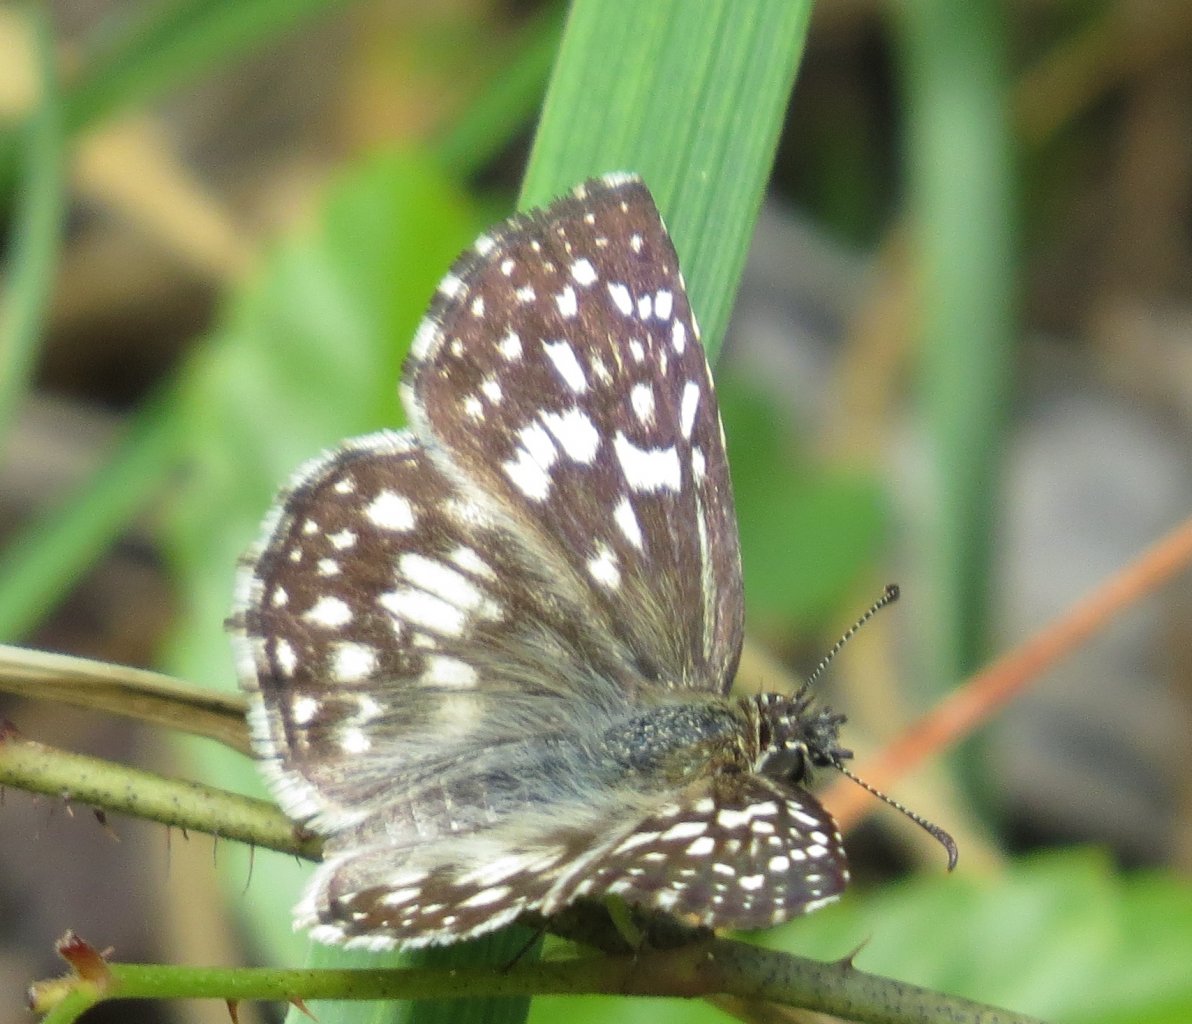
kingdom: Animalia
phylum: Arthropoda
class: Insecta
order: Lepidoptera
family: Hesperiidae
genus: Pyrgus
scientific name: Pyrgus oileus
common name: Tropical Checkered-Skipper
